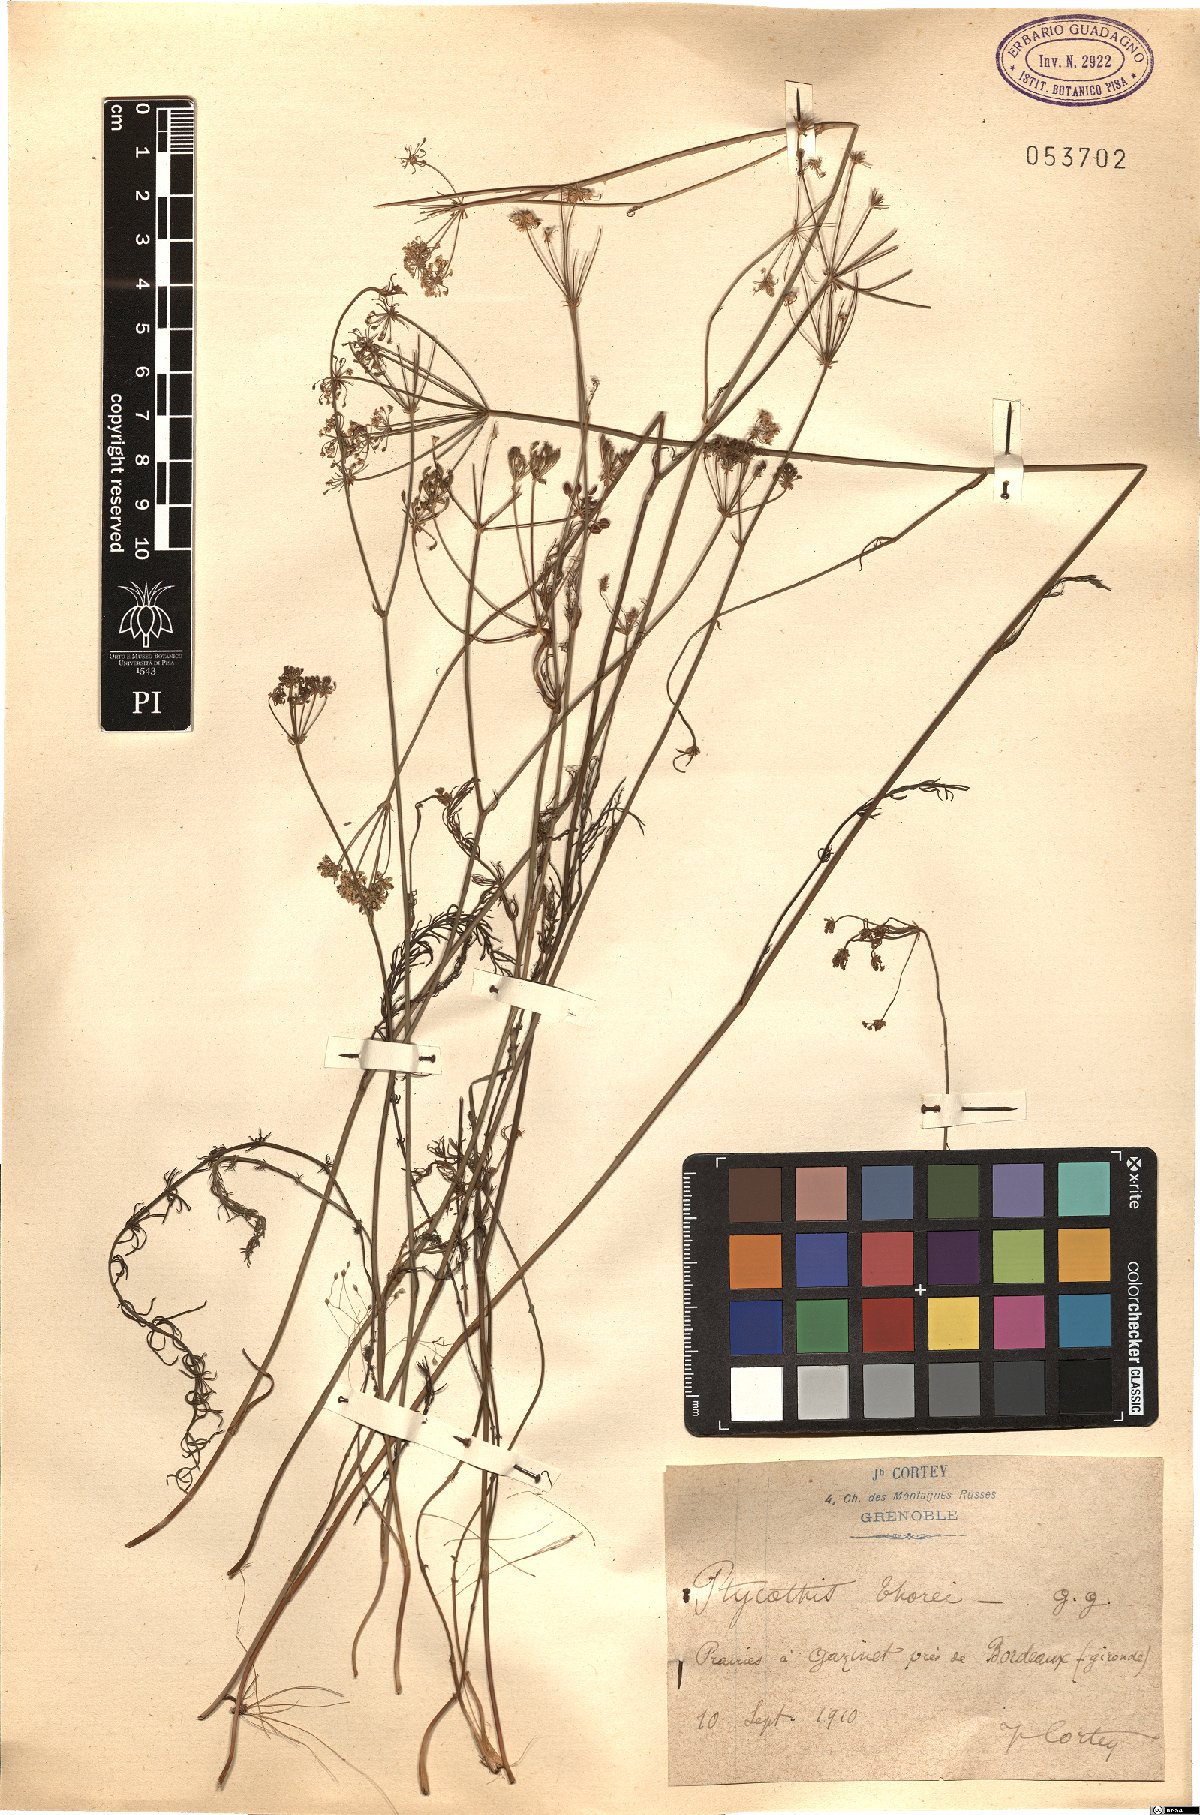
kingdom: Plantae
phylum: Tracheophyta
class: Magnoliopsida
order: Apiales
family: Apiaceae
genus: Caropsis
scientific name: Caropsis verticillatoinundata
